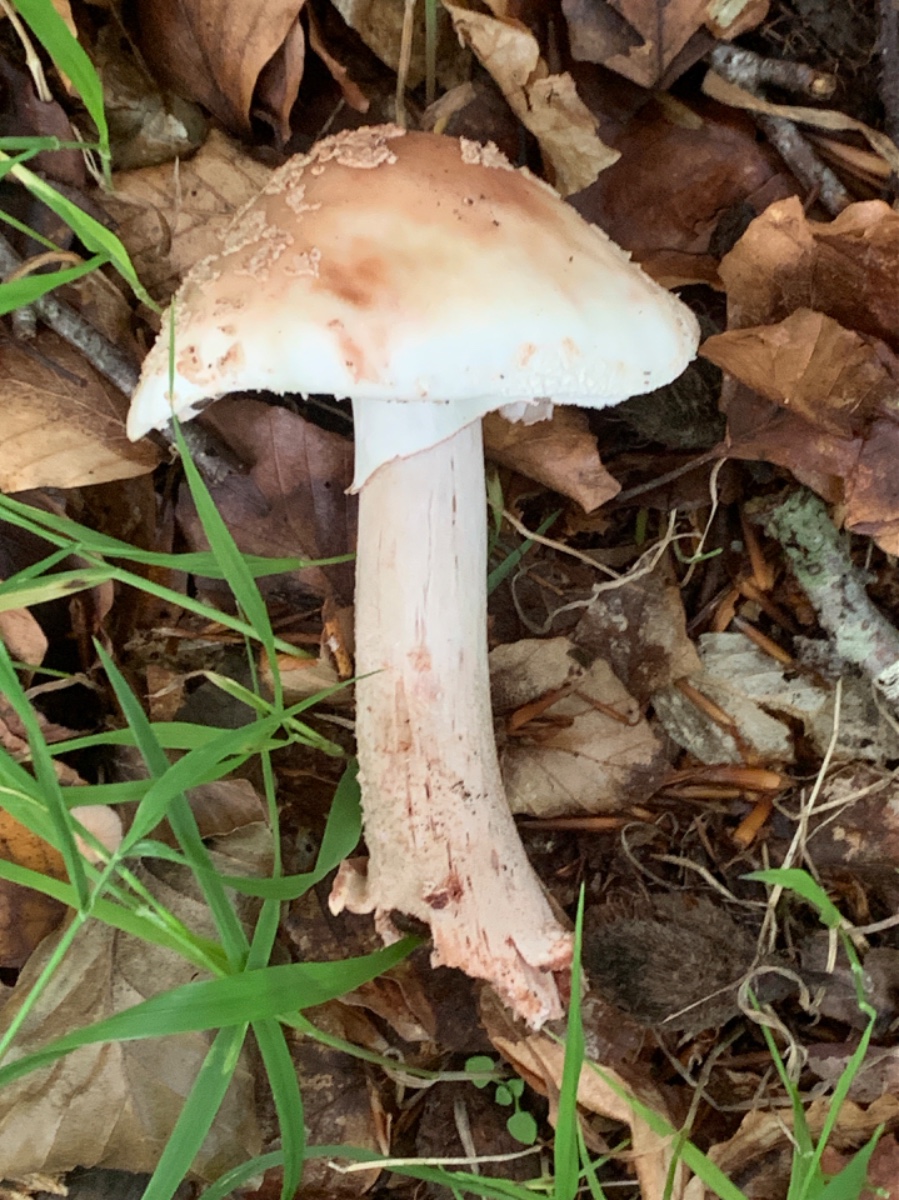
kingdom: Fungi
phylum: Basidiomycota
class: Agaricomycetes
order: Agaricales
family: Amanitaceae
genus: Amanita
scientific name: Amanita rubescens
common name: rødmende fluesvamp
